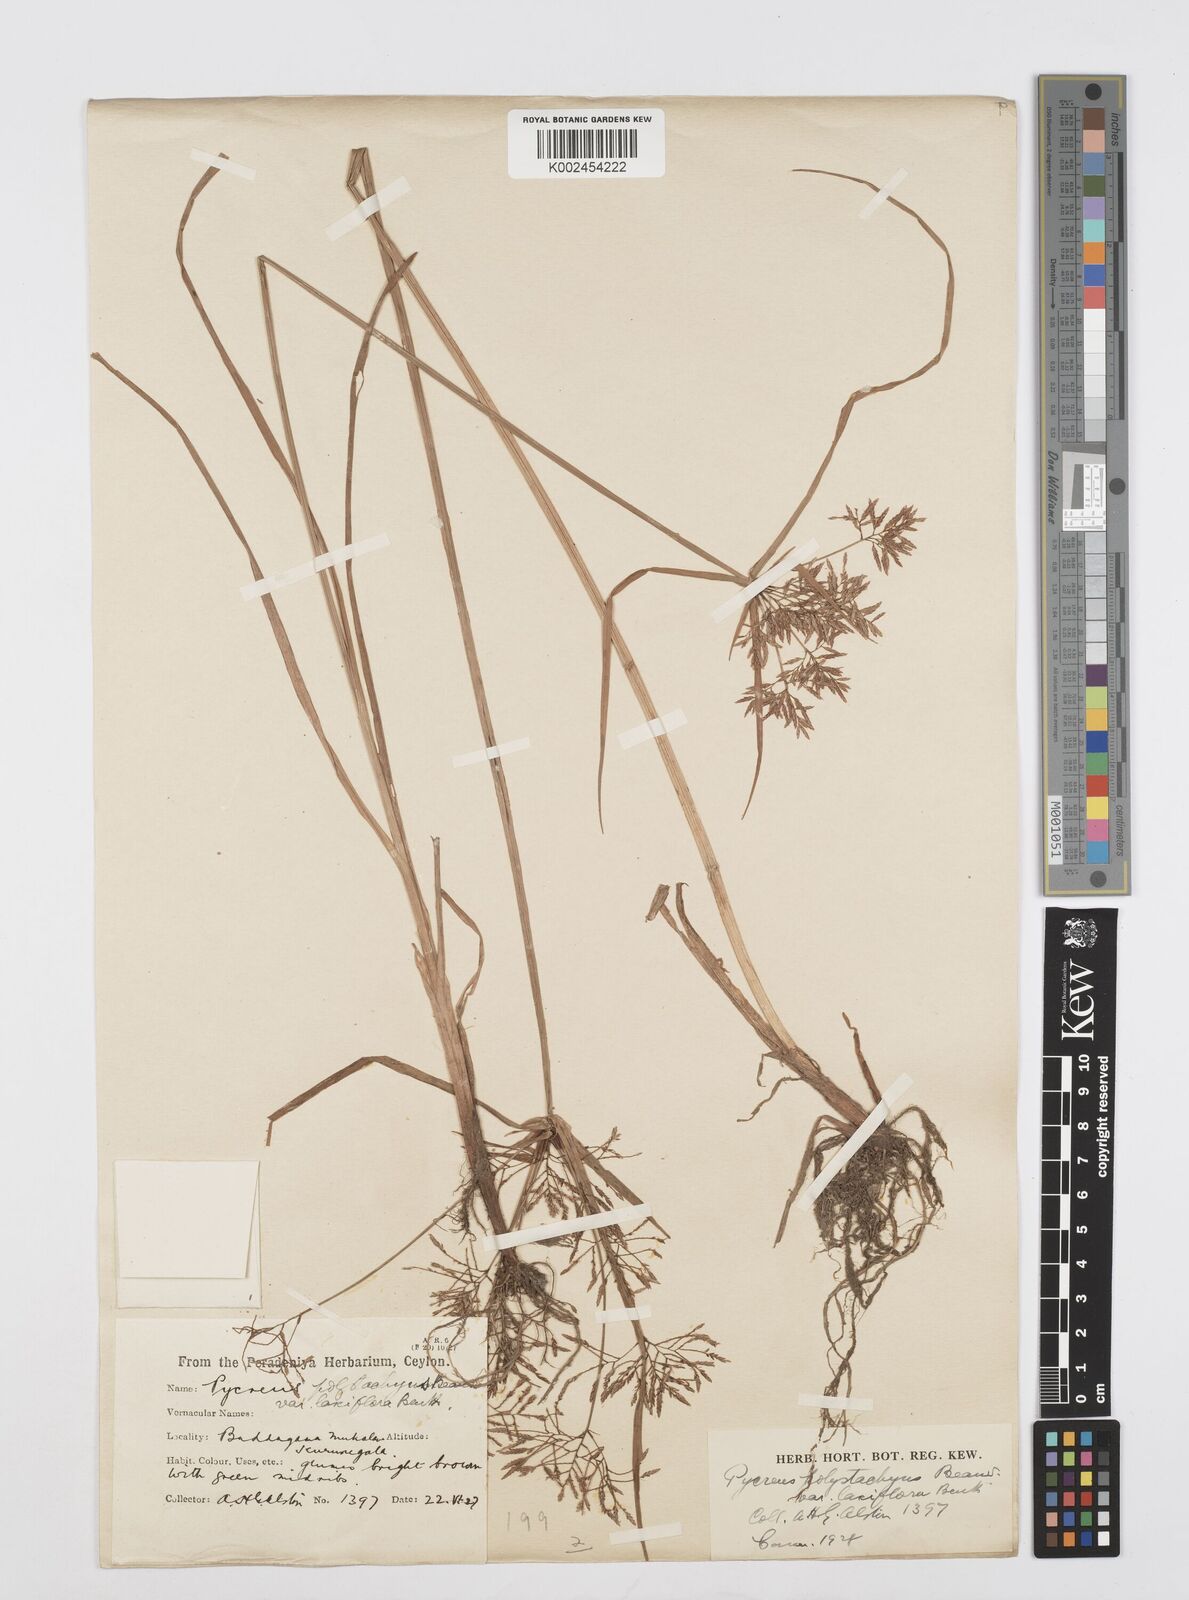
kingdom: Plantae
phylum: Tracheophyta
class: Liliopsida
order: Poales
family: Cyperaceae
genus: Cyperus
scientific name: Cyperus polystachyos
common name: Bunchy flat sedge
